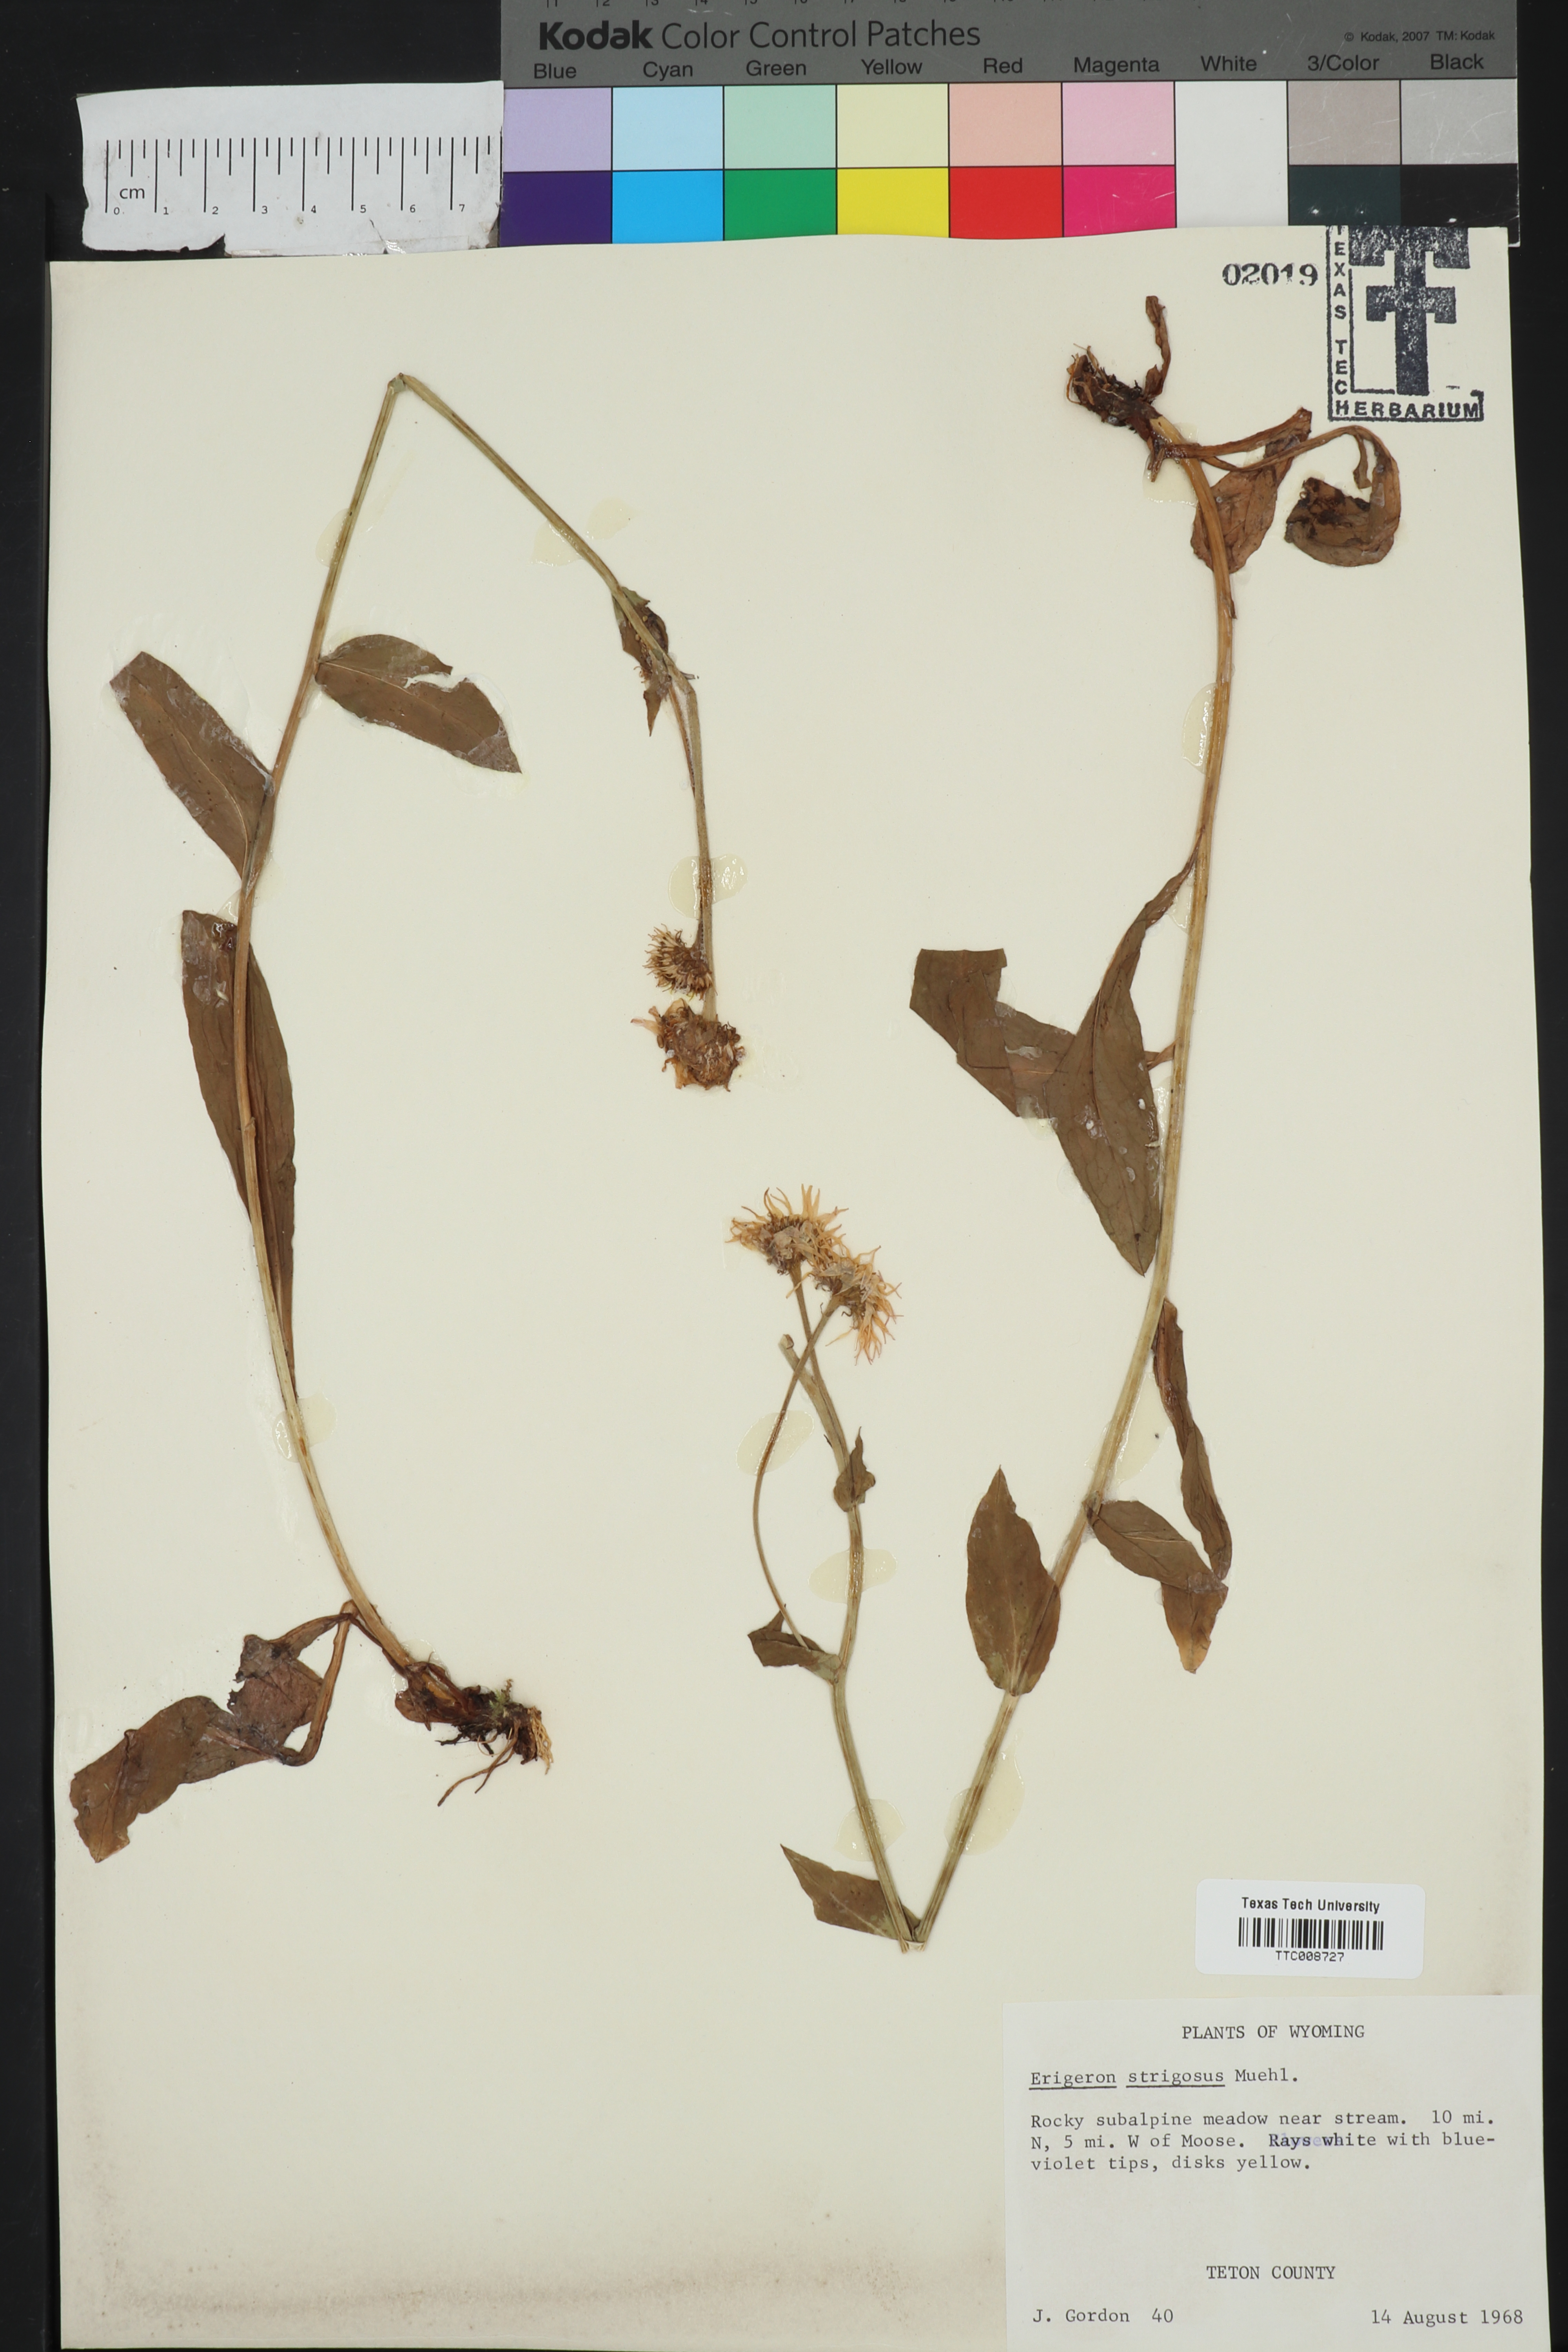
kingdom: Plantae
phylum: Tracheophyta
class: Magnoliopsida
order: Asterales
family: Asteraceae
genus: Erigeron
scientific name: Erigeron strigosus
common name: Common eastern fleabane
